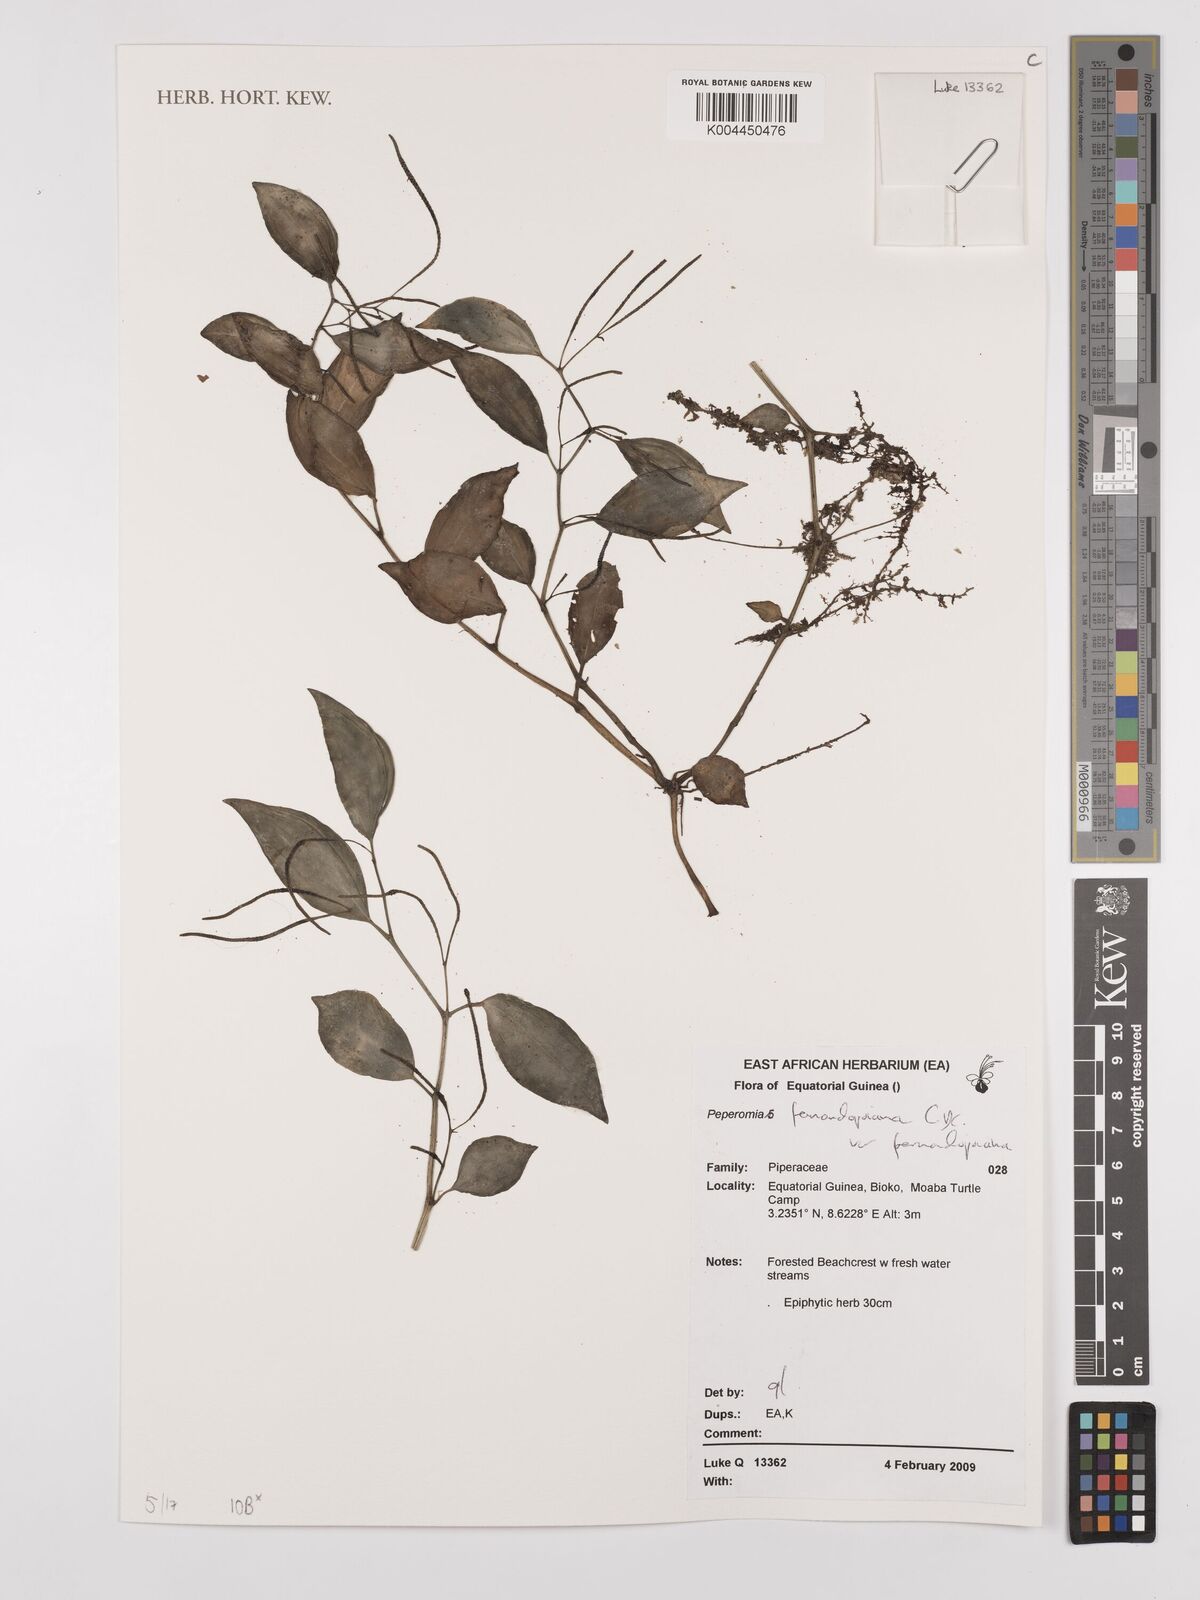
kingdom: Plantae
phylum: Tracheophyta
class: Magnoliopsida
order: Piperales
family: Piperaceae
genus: Peperomia
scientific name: Peperomia fernandopoiana
